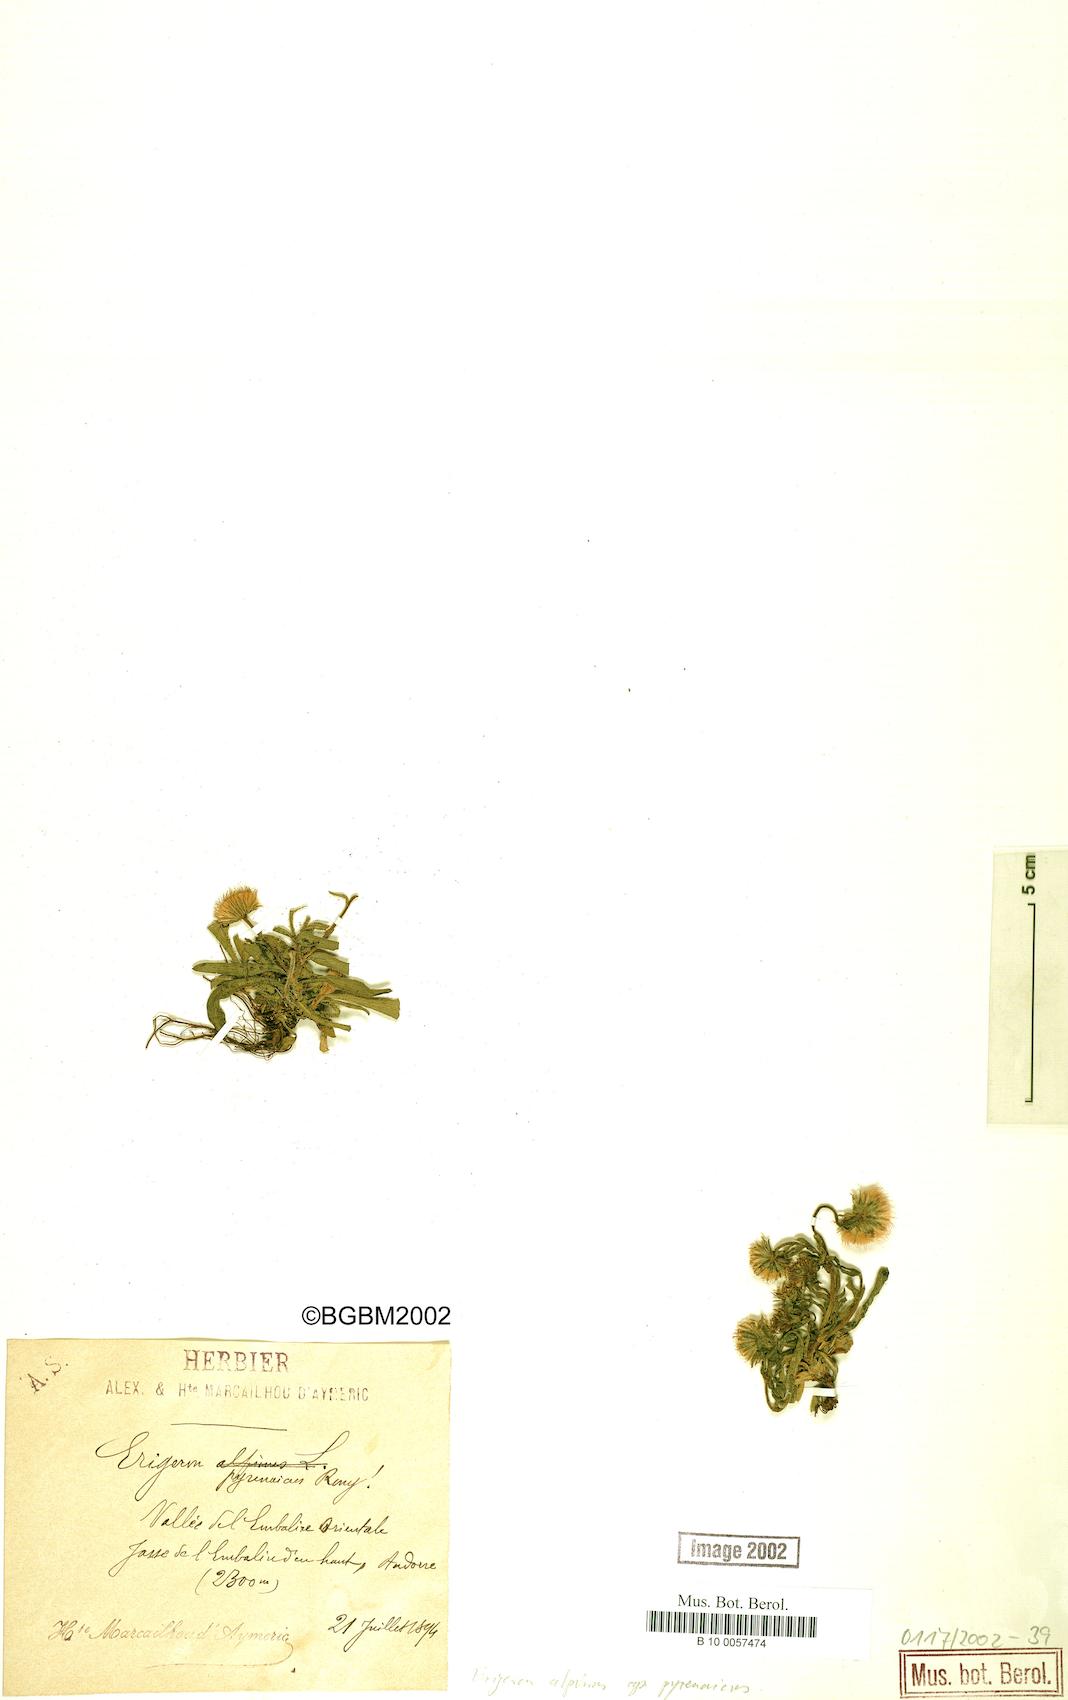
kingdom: Plantae
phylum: Tracheophyta
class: Magnoliopsida
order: Asterales
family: Asteraceae
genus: Erigeron
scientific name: Erigeron uniflorus
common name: Northern daisy
